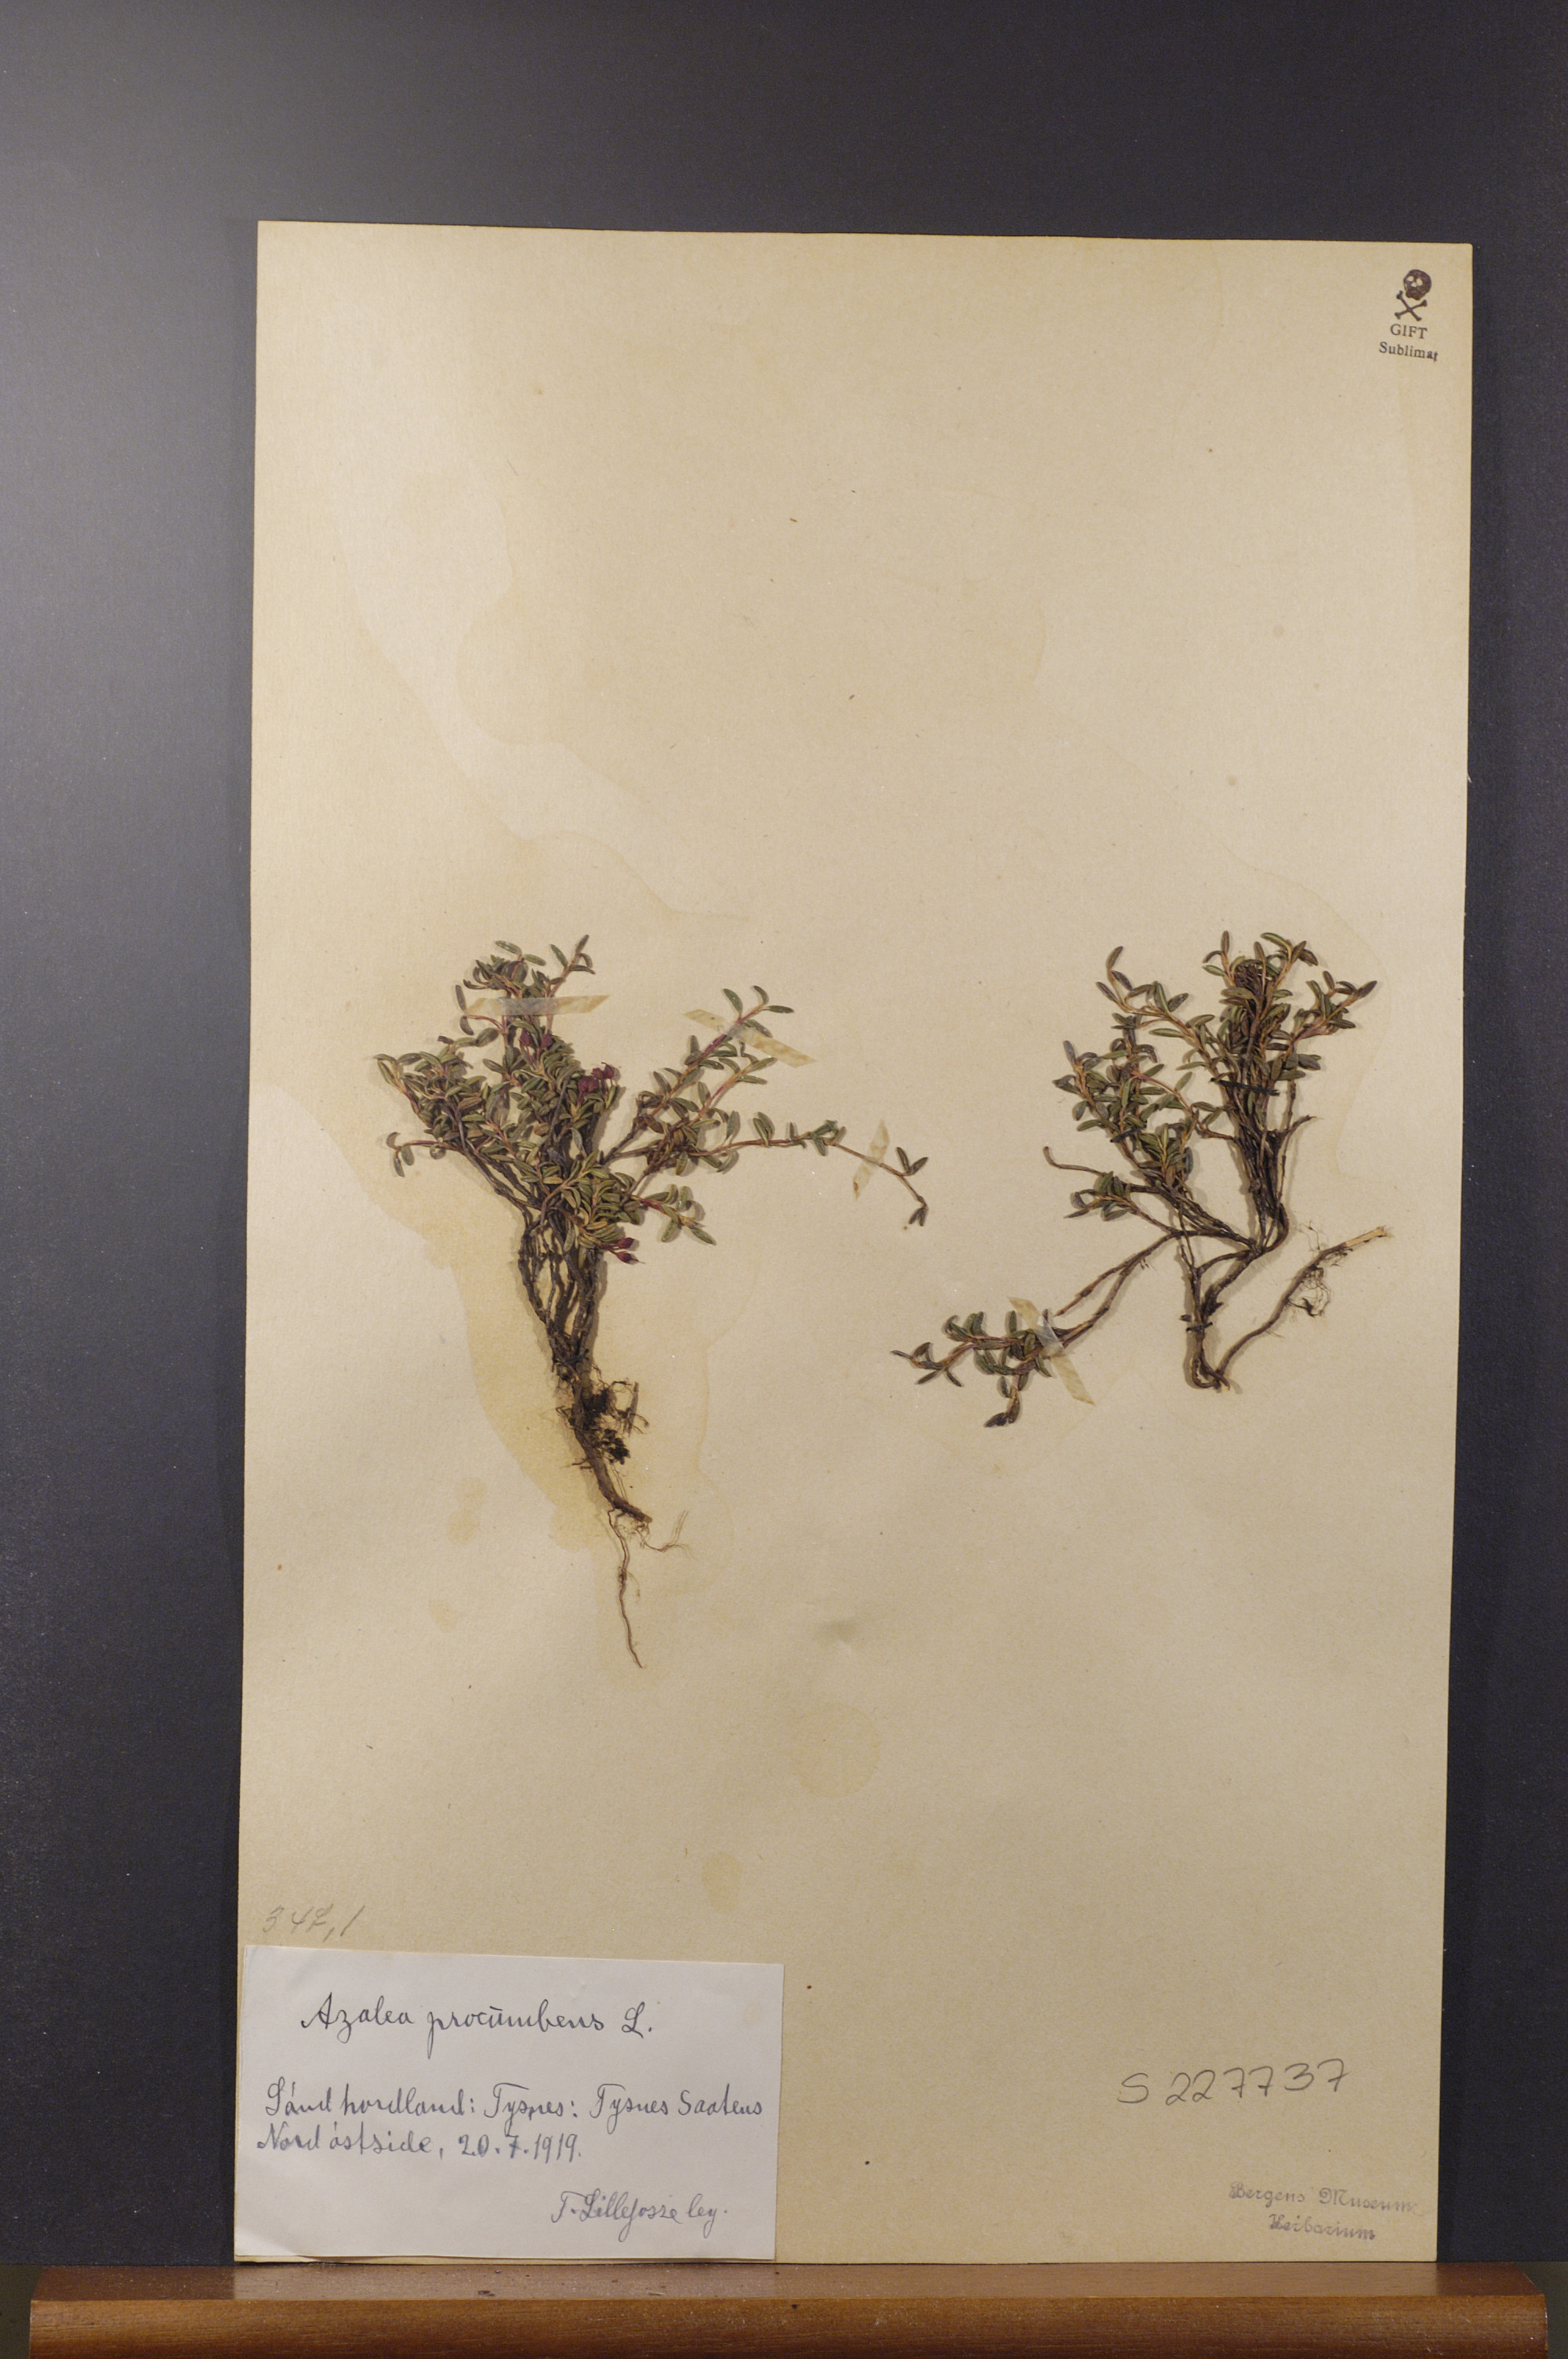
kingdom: Plantae
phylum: Tracheophyta
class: Magnoliopsida
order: Ericales
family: Ericaceae
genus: Kalmia
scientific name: Kalmia procumbens
